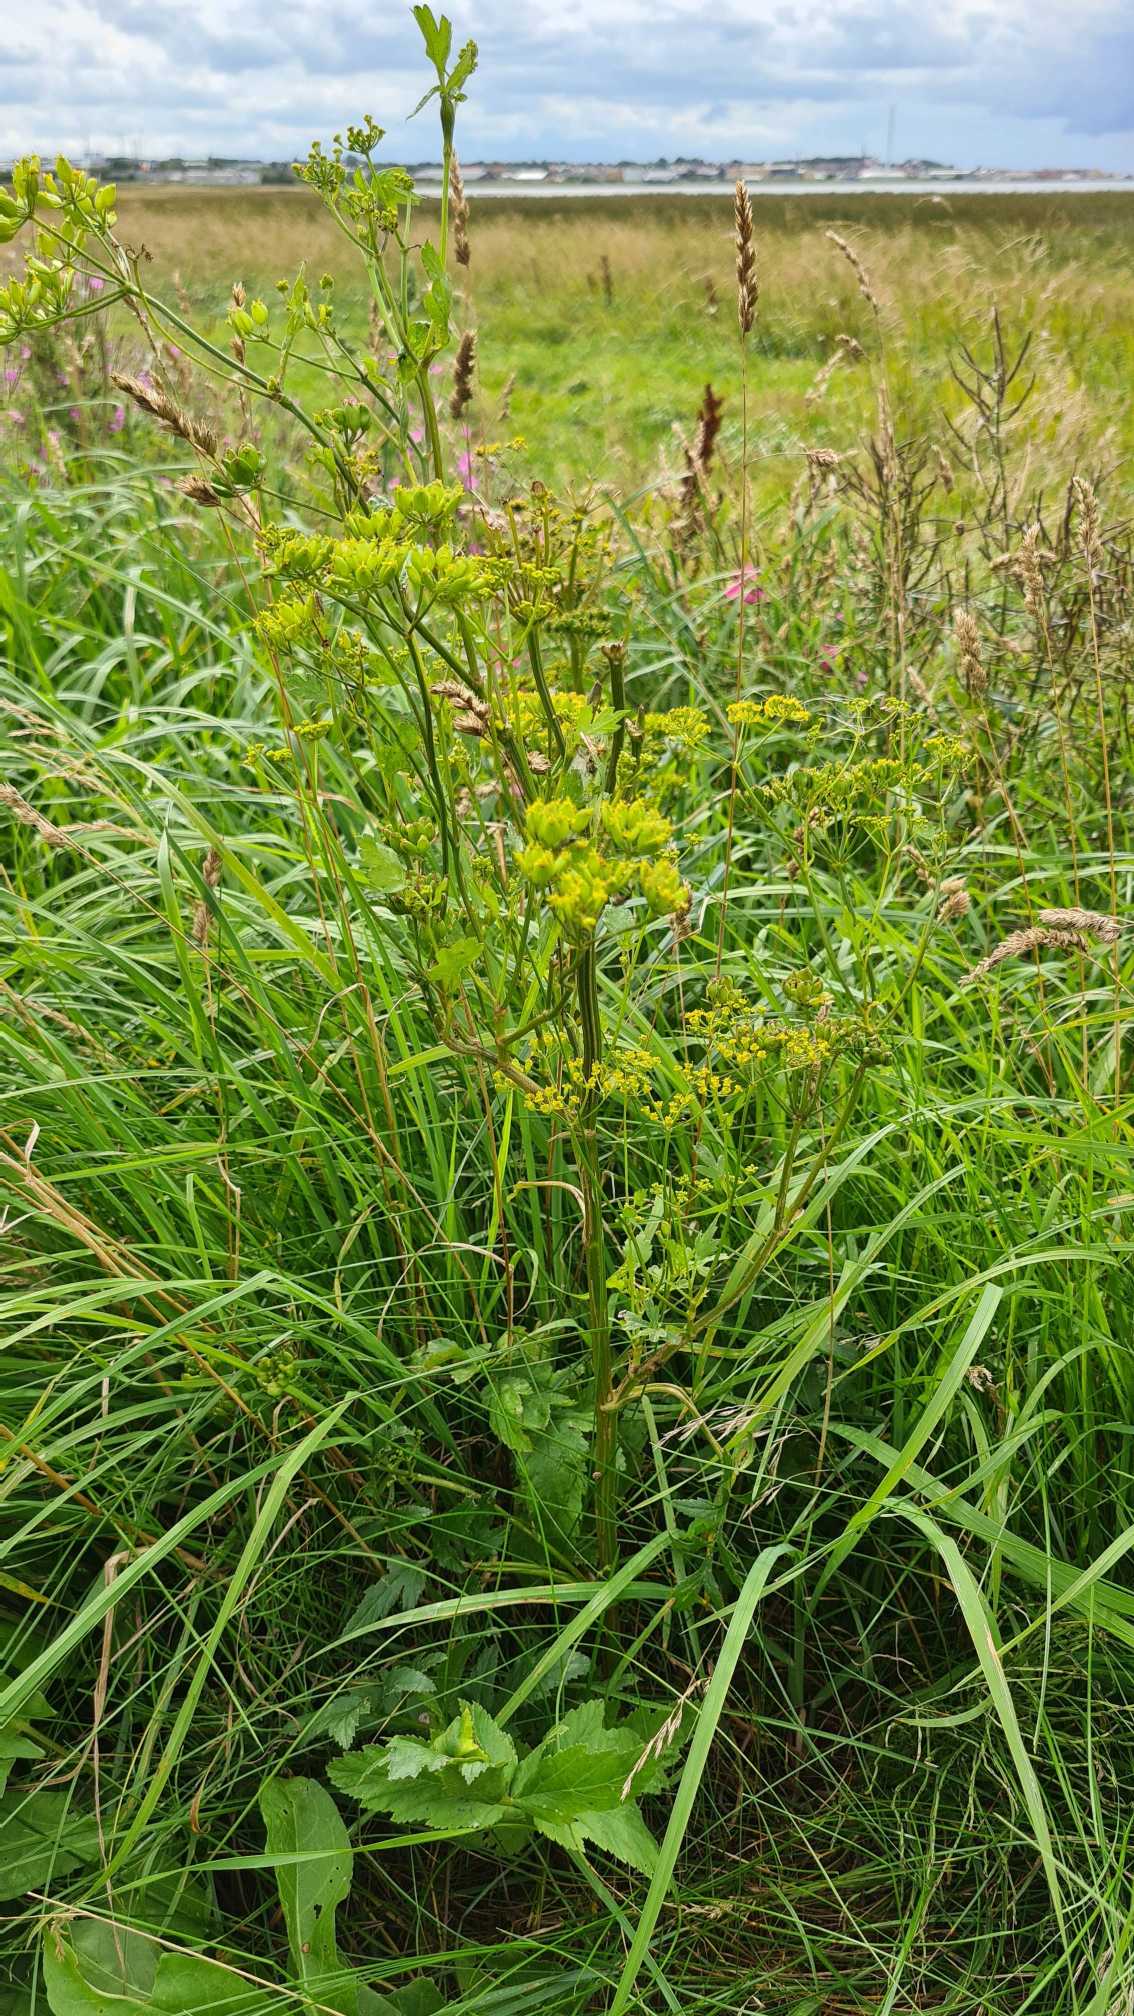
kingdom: Plantae
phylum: Tracheophyta
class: Magnoliopsida
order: Apiales
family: Apiaceae
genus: Pastinaca
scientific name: Pastinaca sativa
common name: Pastinak
